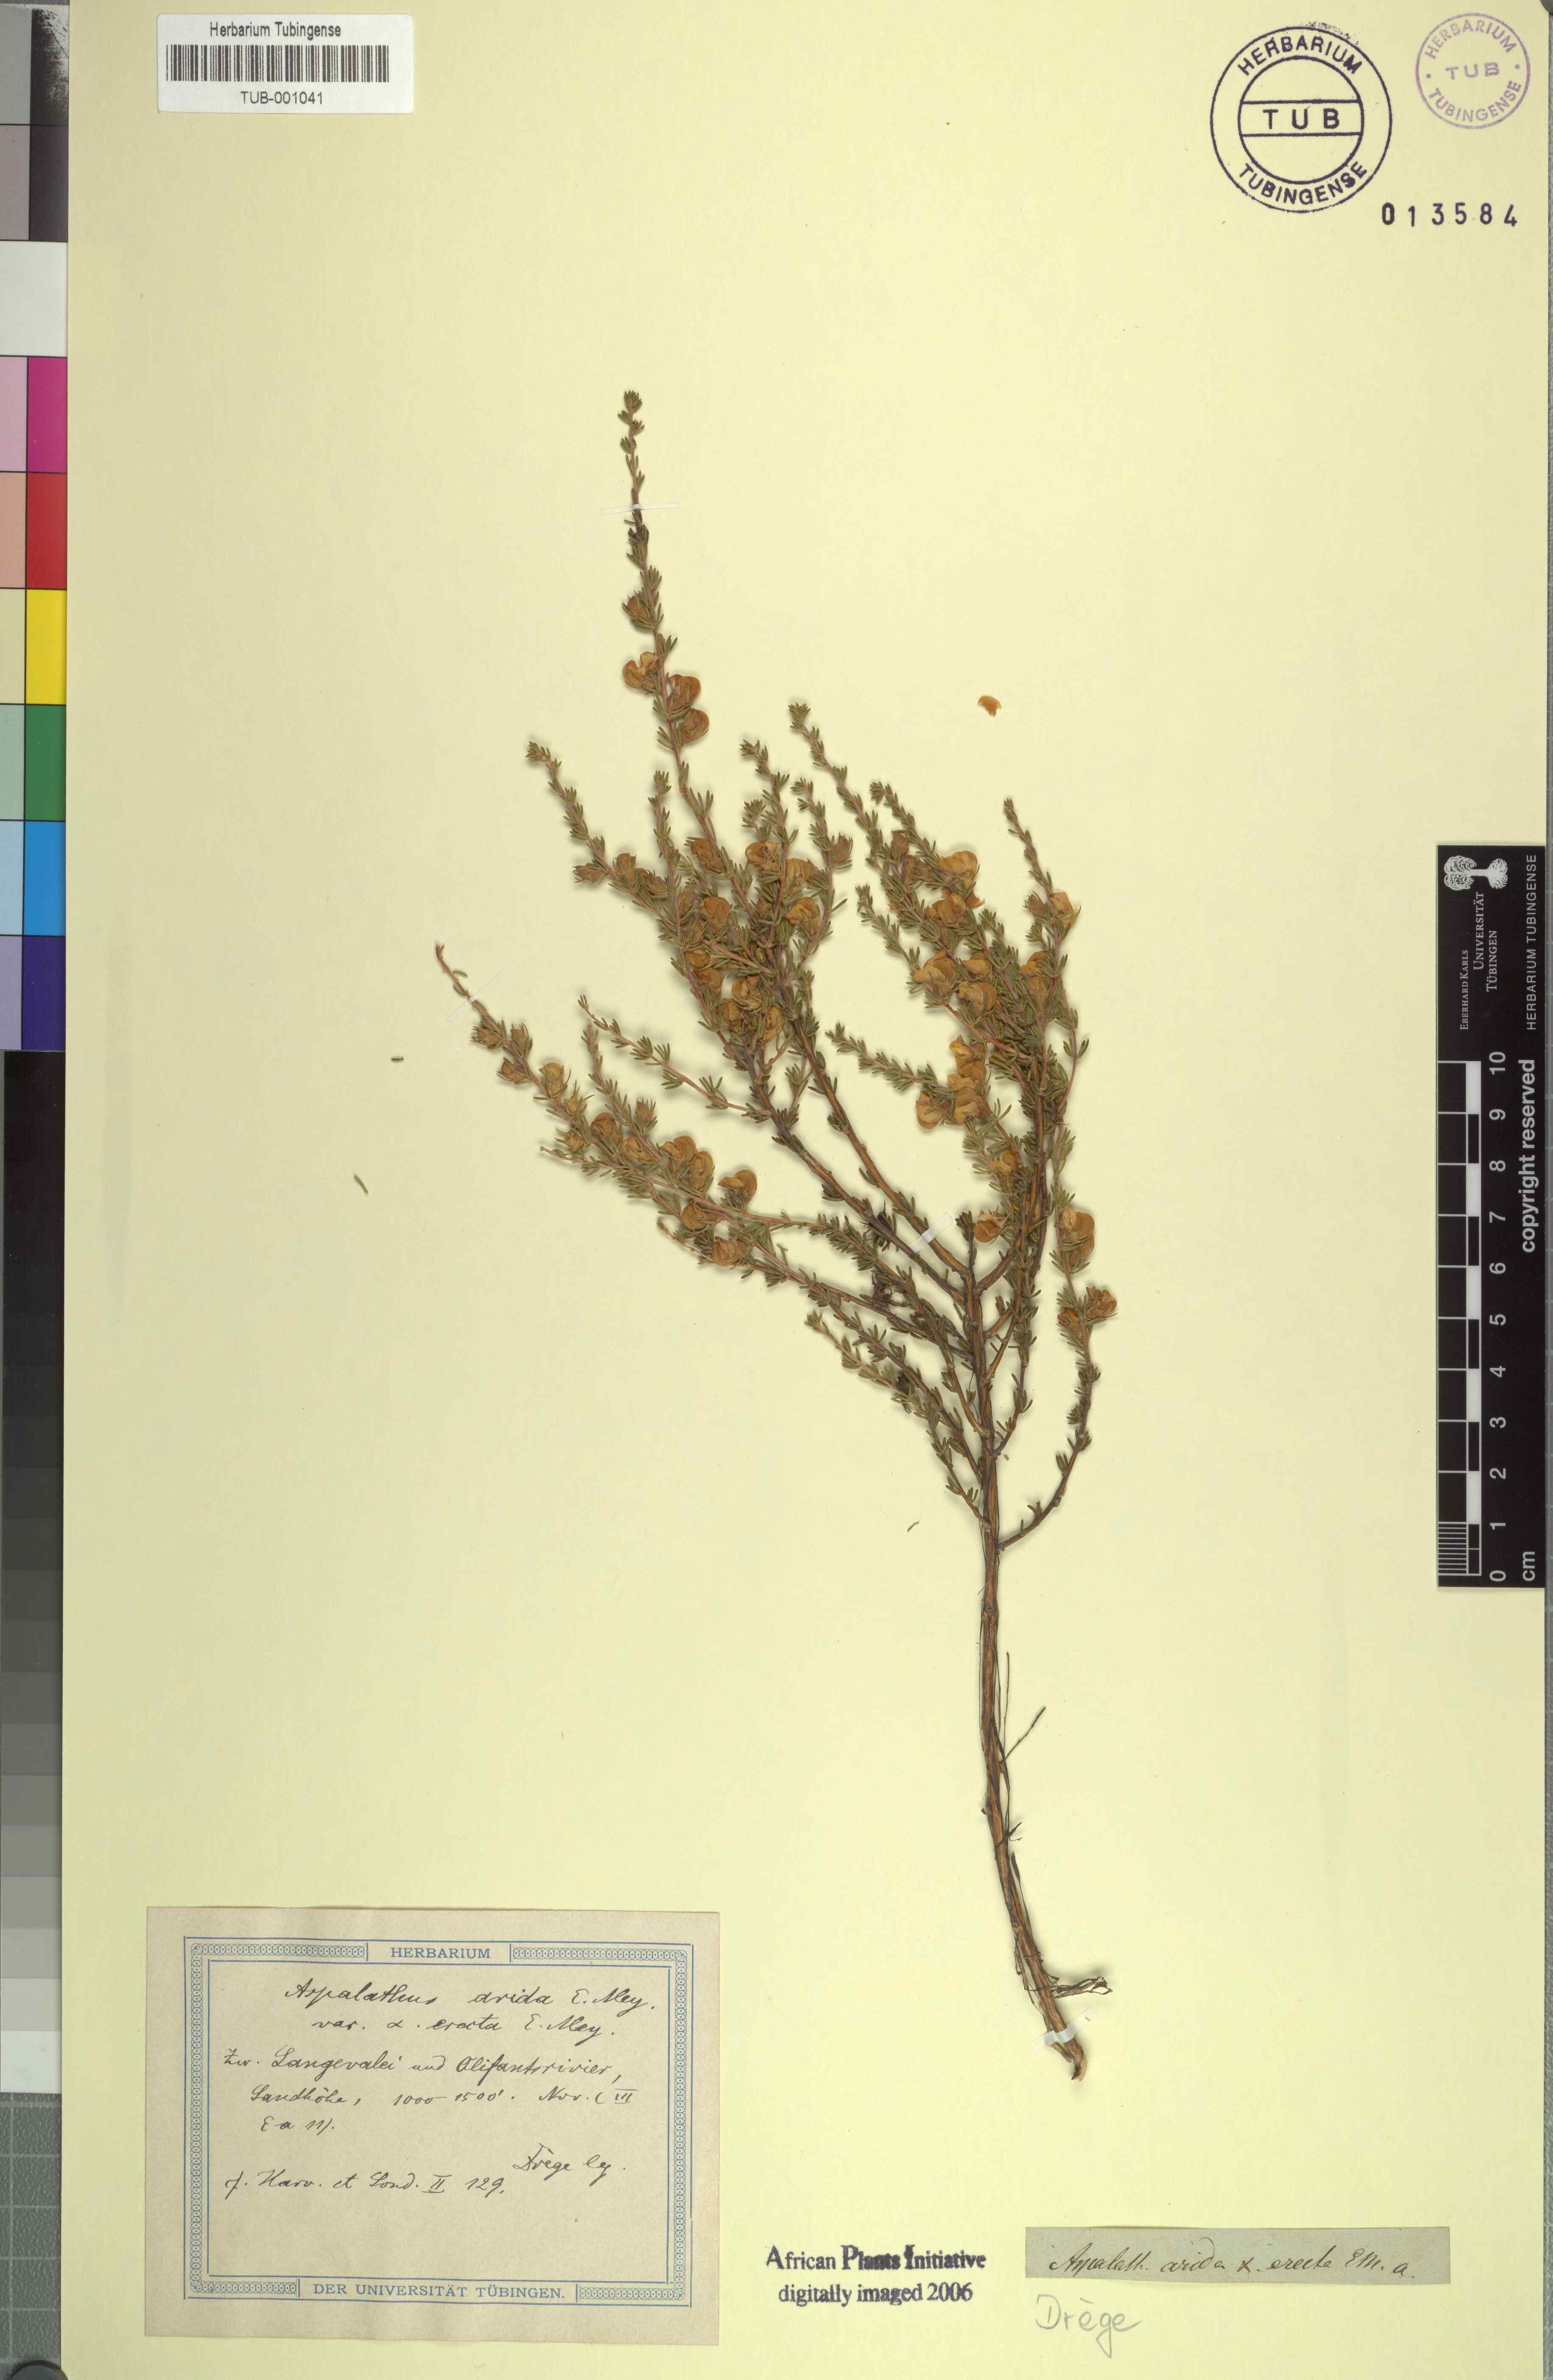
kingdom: Plantae
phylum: Tracheophyta
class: Magnoliopsida
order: Fabales
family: Fabaceae
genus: Aspalathus
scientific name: Aspalathus arida
